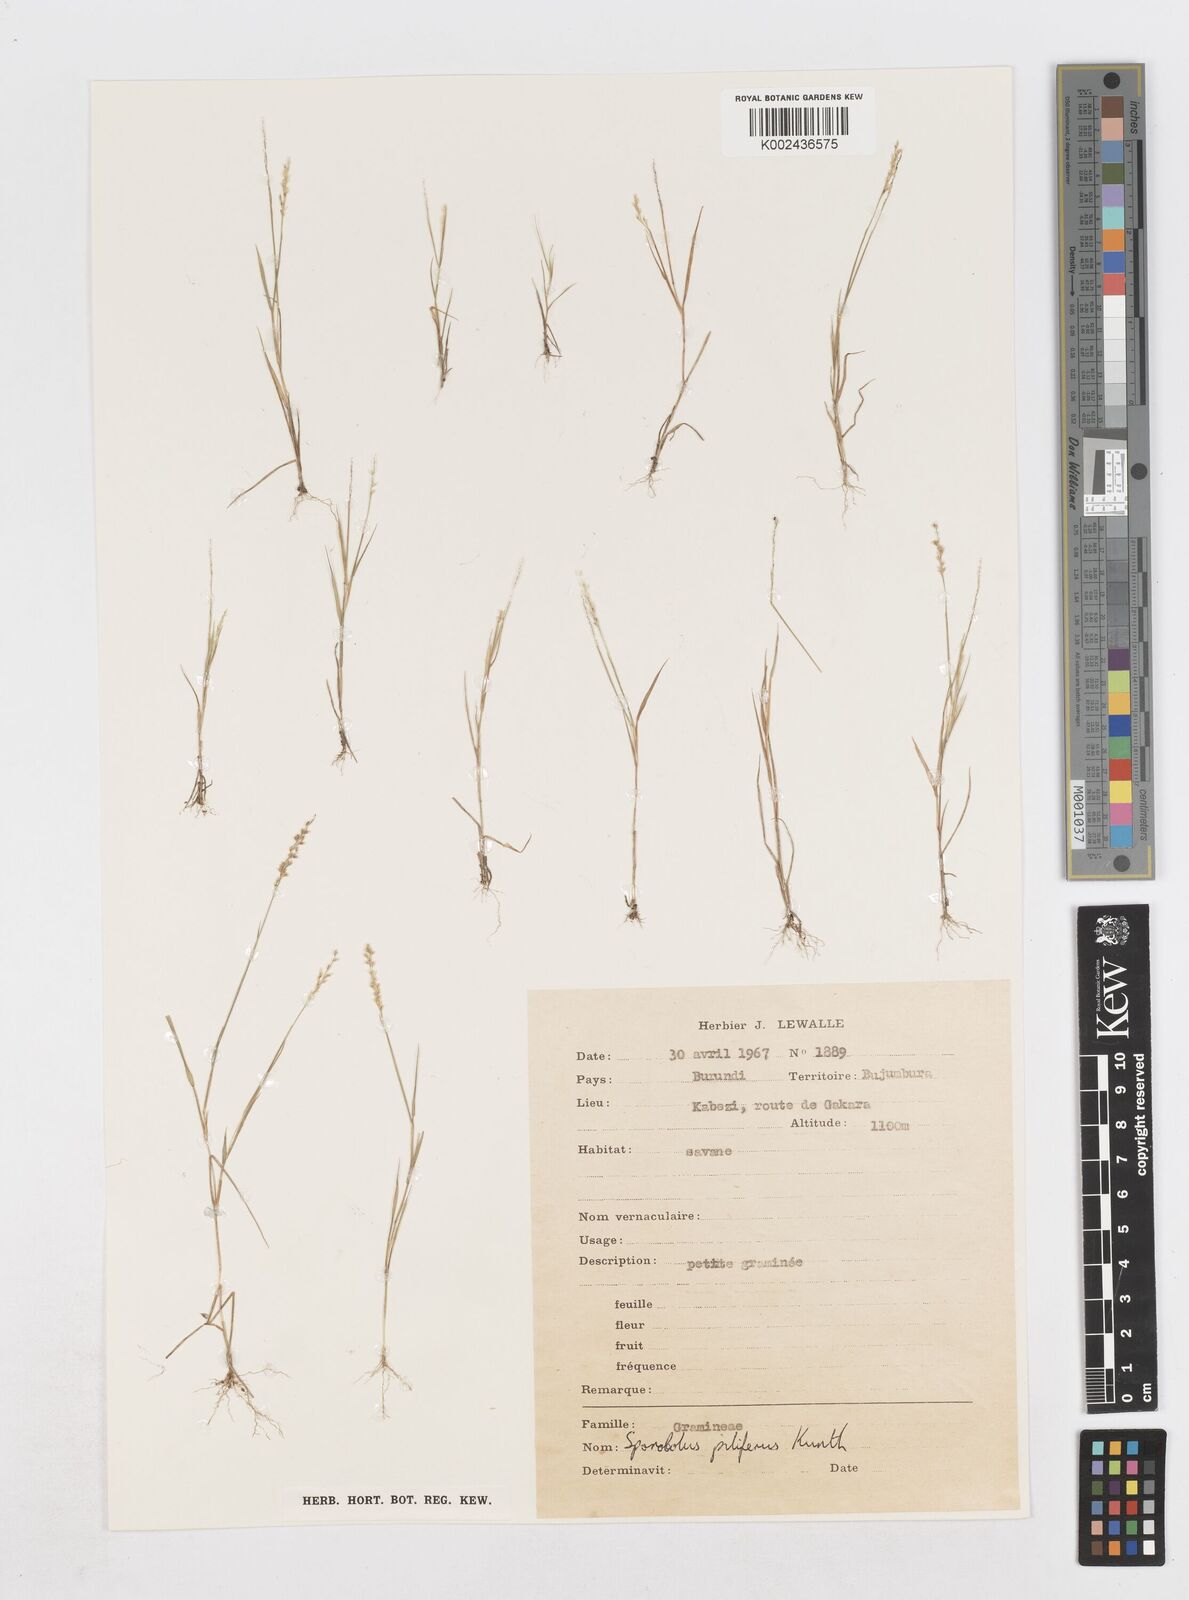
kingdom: Plantae
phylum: Tracheophyta
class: Liliopsida
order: Poales
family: Poaceae
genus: Sporobolus
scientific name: Sporobolus pilifer
